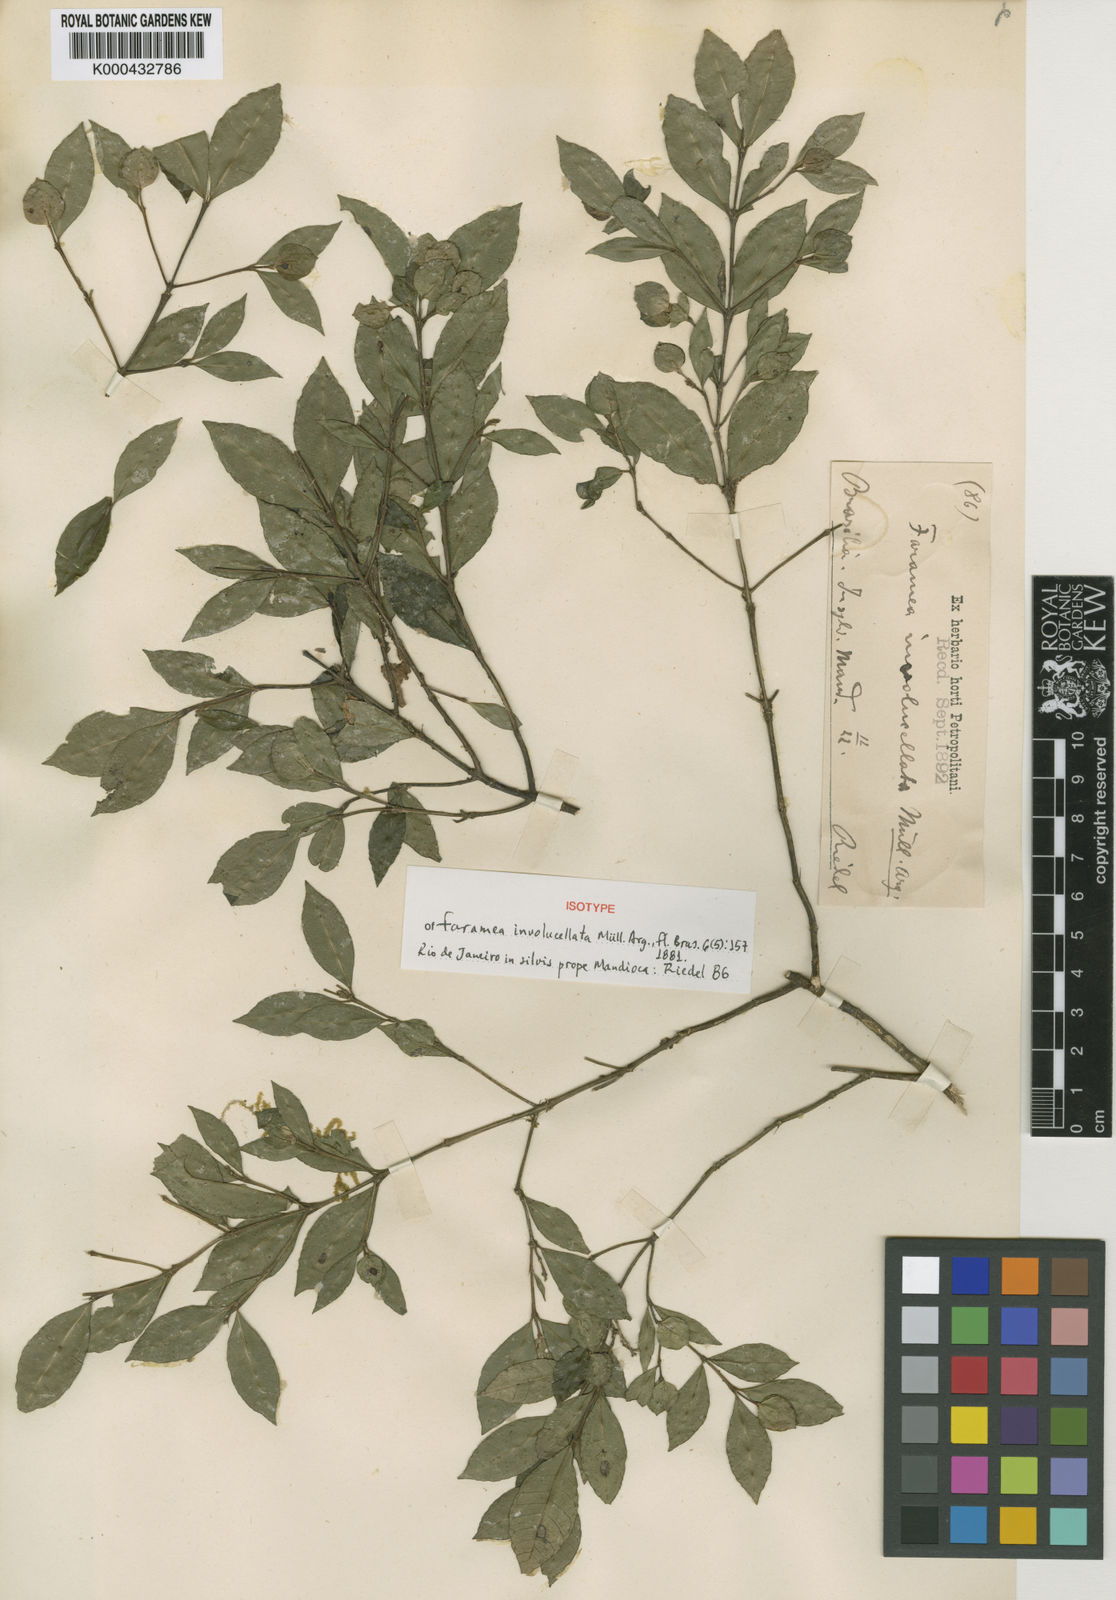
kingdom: Plantae
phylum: Tracheophyta
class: Magnoliopsida
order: Gentianales
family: Rubiaceae
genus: Faramea
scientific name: Faramea
